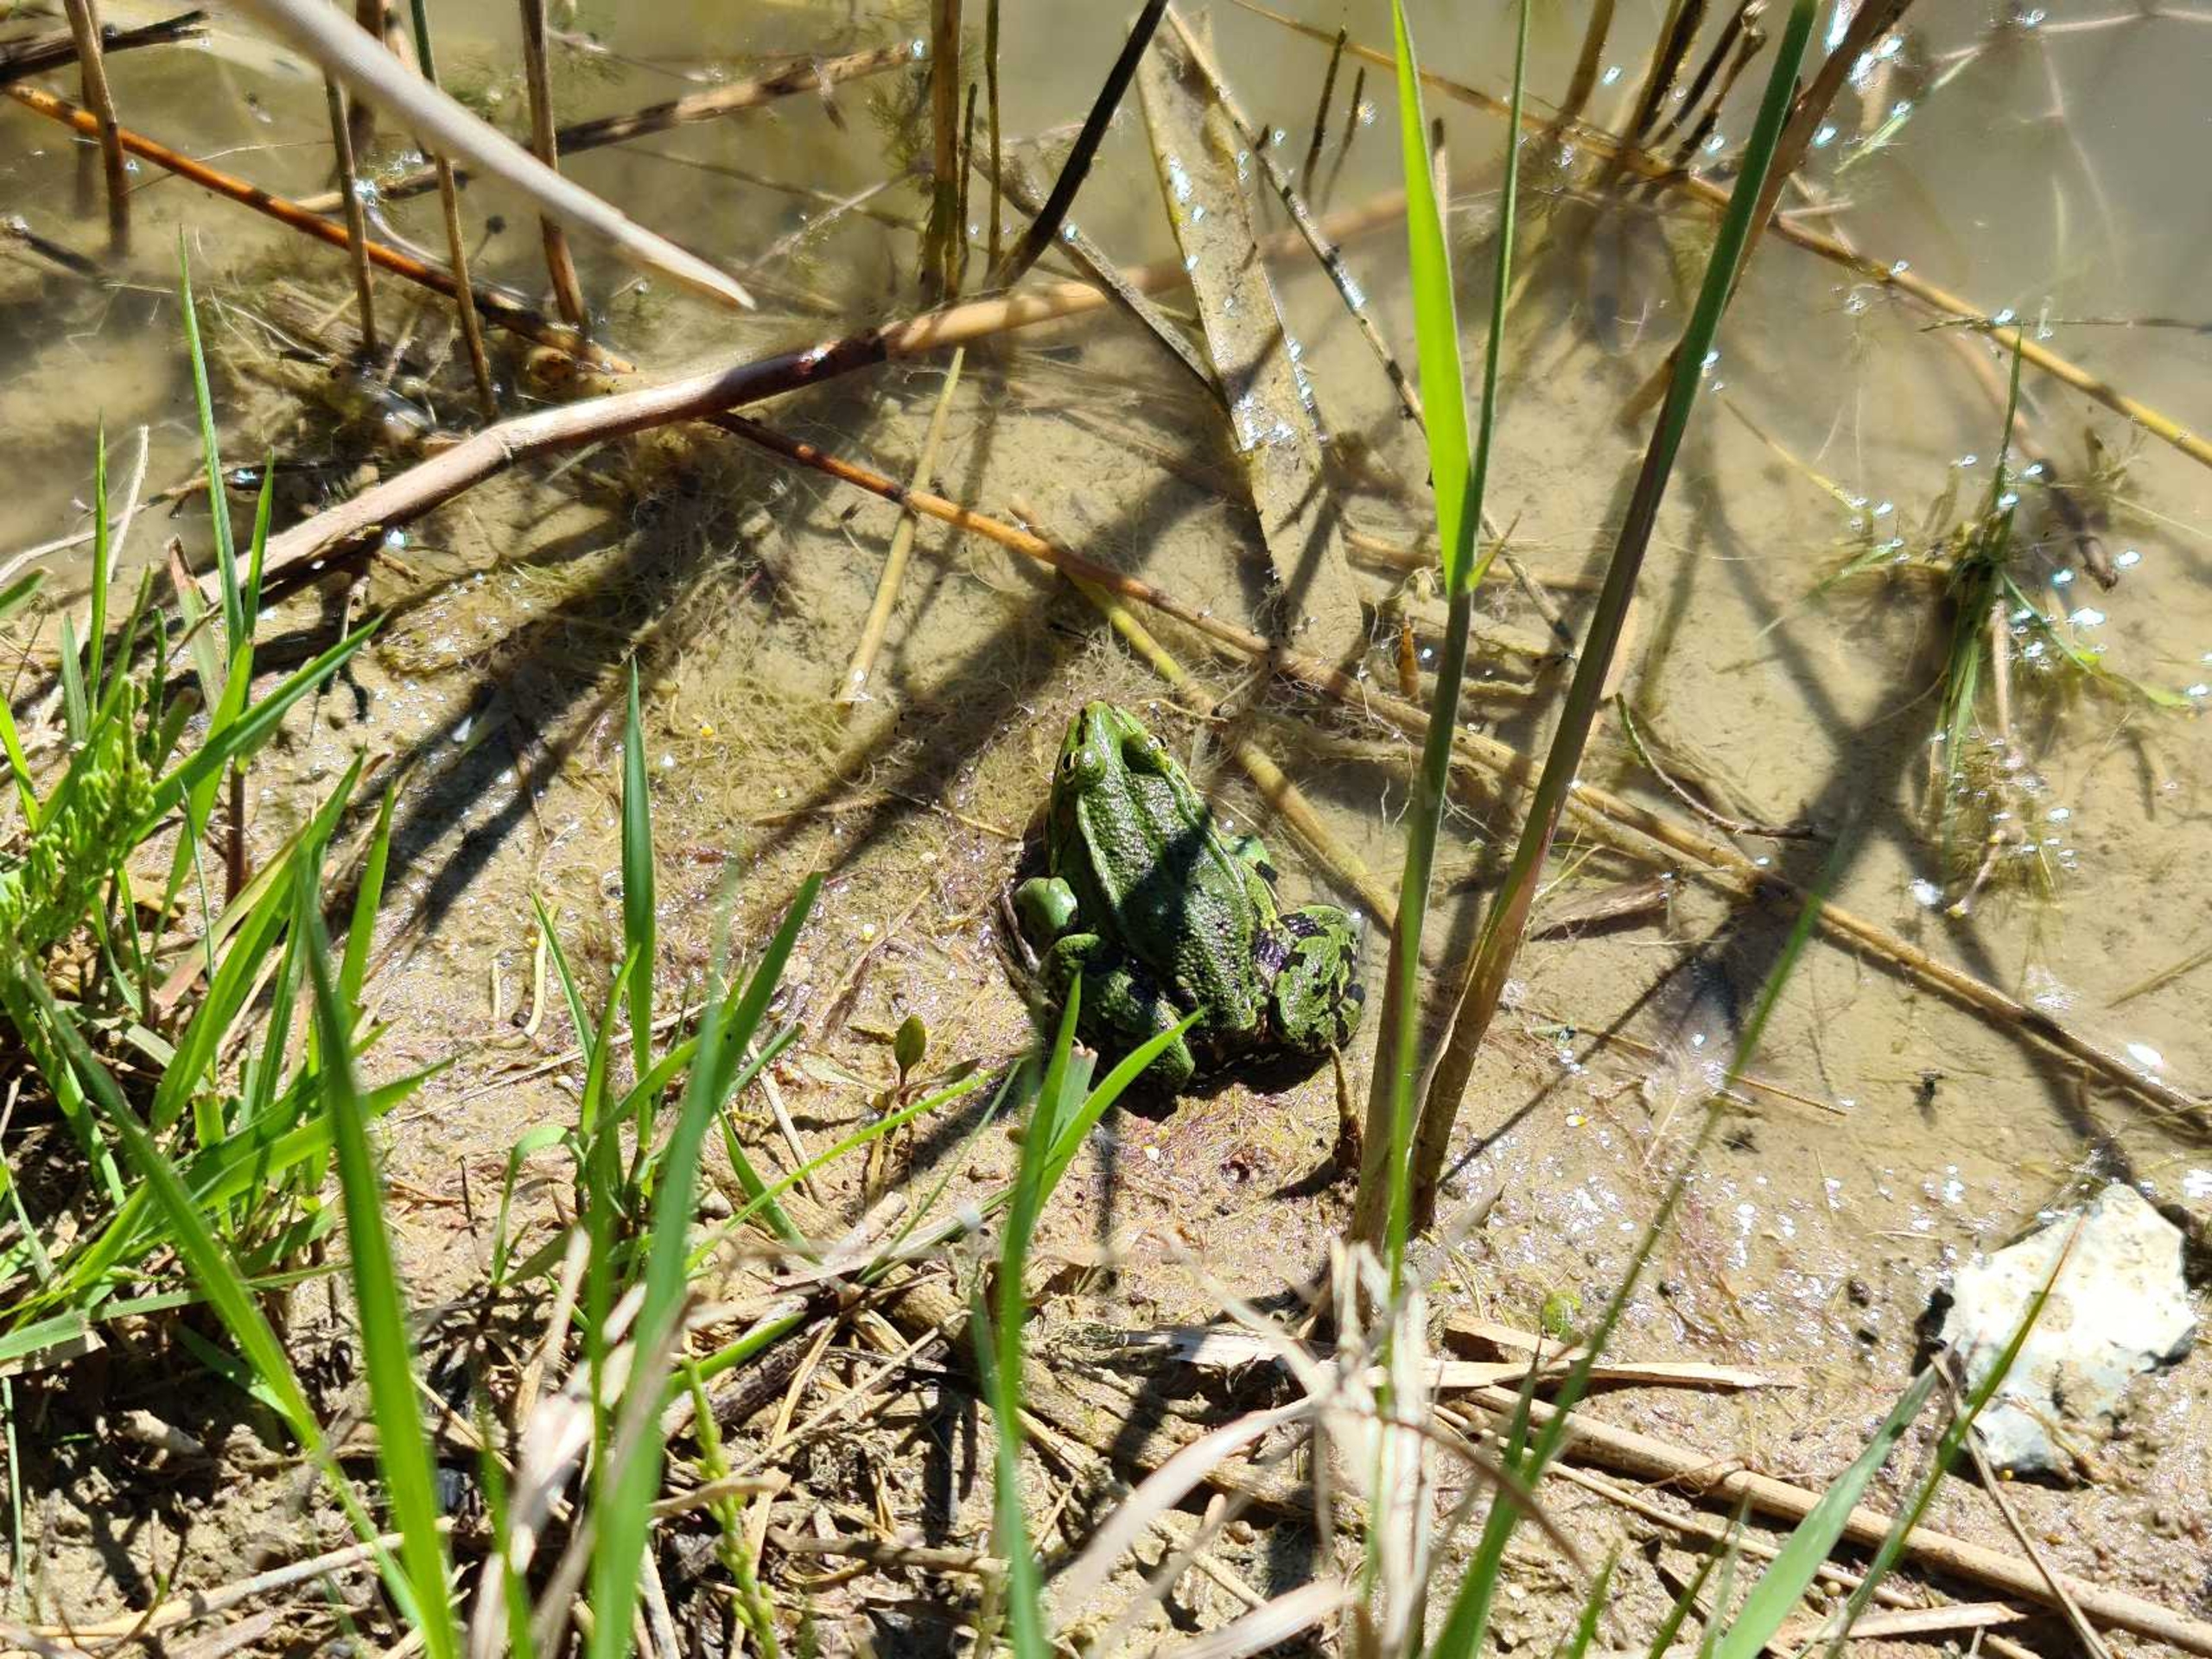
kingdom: Animalia
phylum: Chordata
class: Amphibia
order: Anura
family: Ranidae
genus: Pelophylax
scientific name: Pelophylax lessonae
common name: Grøn frø
